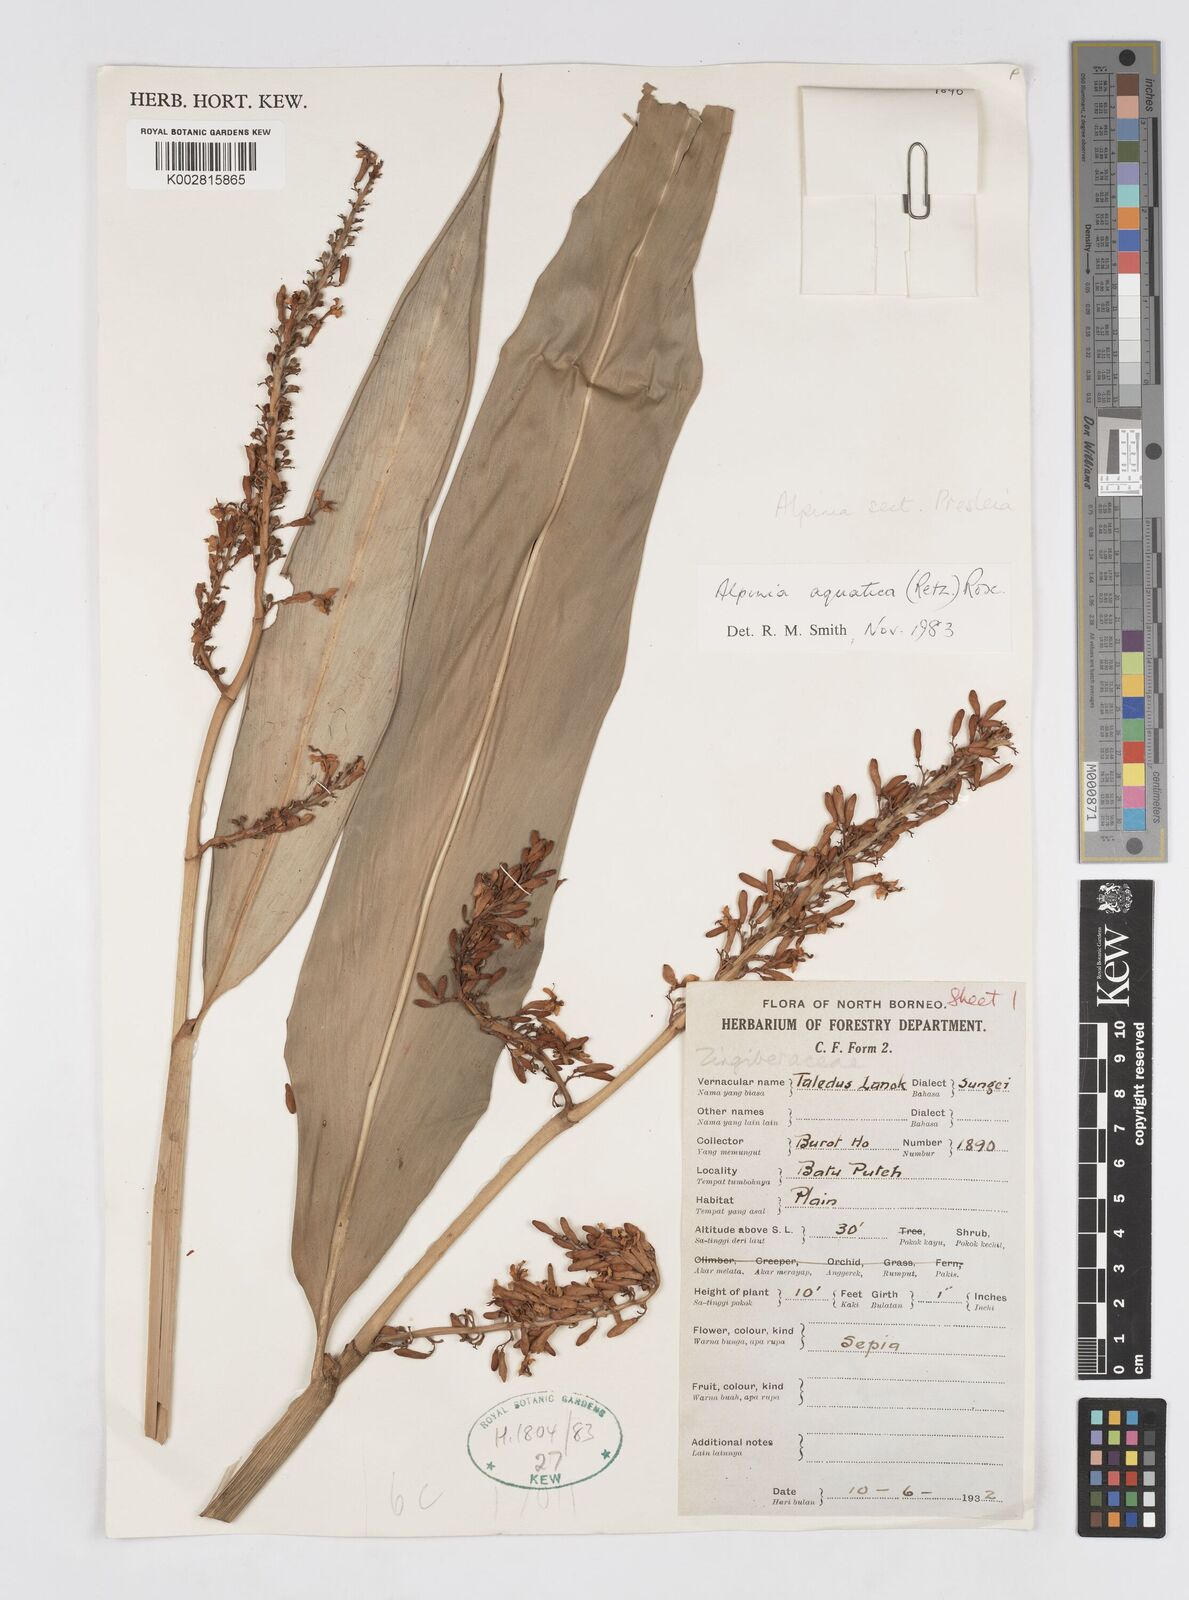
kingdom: Plantae
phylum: Tracheophyta
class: Liliopsida
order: Zingiberales
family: Zingiberaceae
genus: Alpinia
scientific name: Alpinia aquatica
